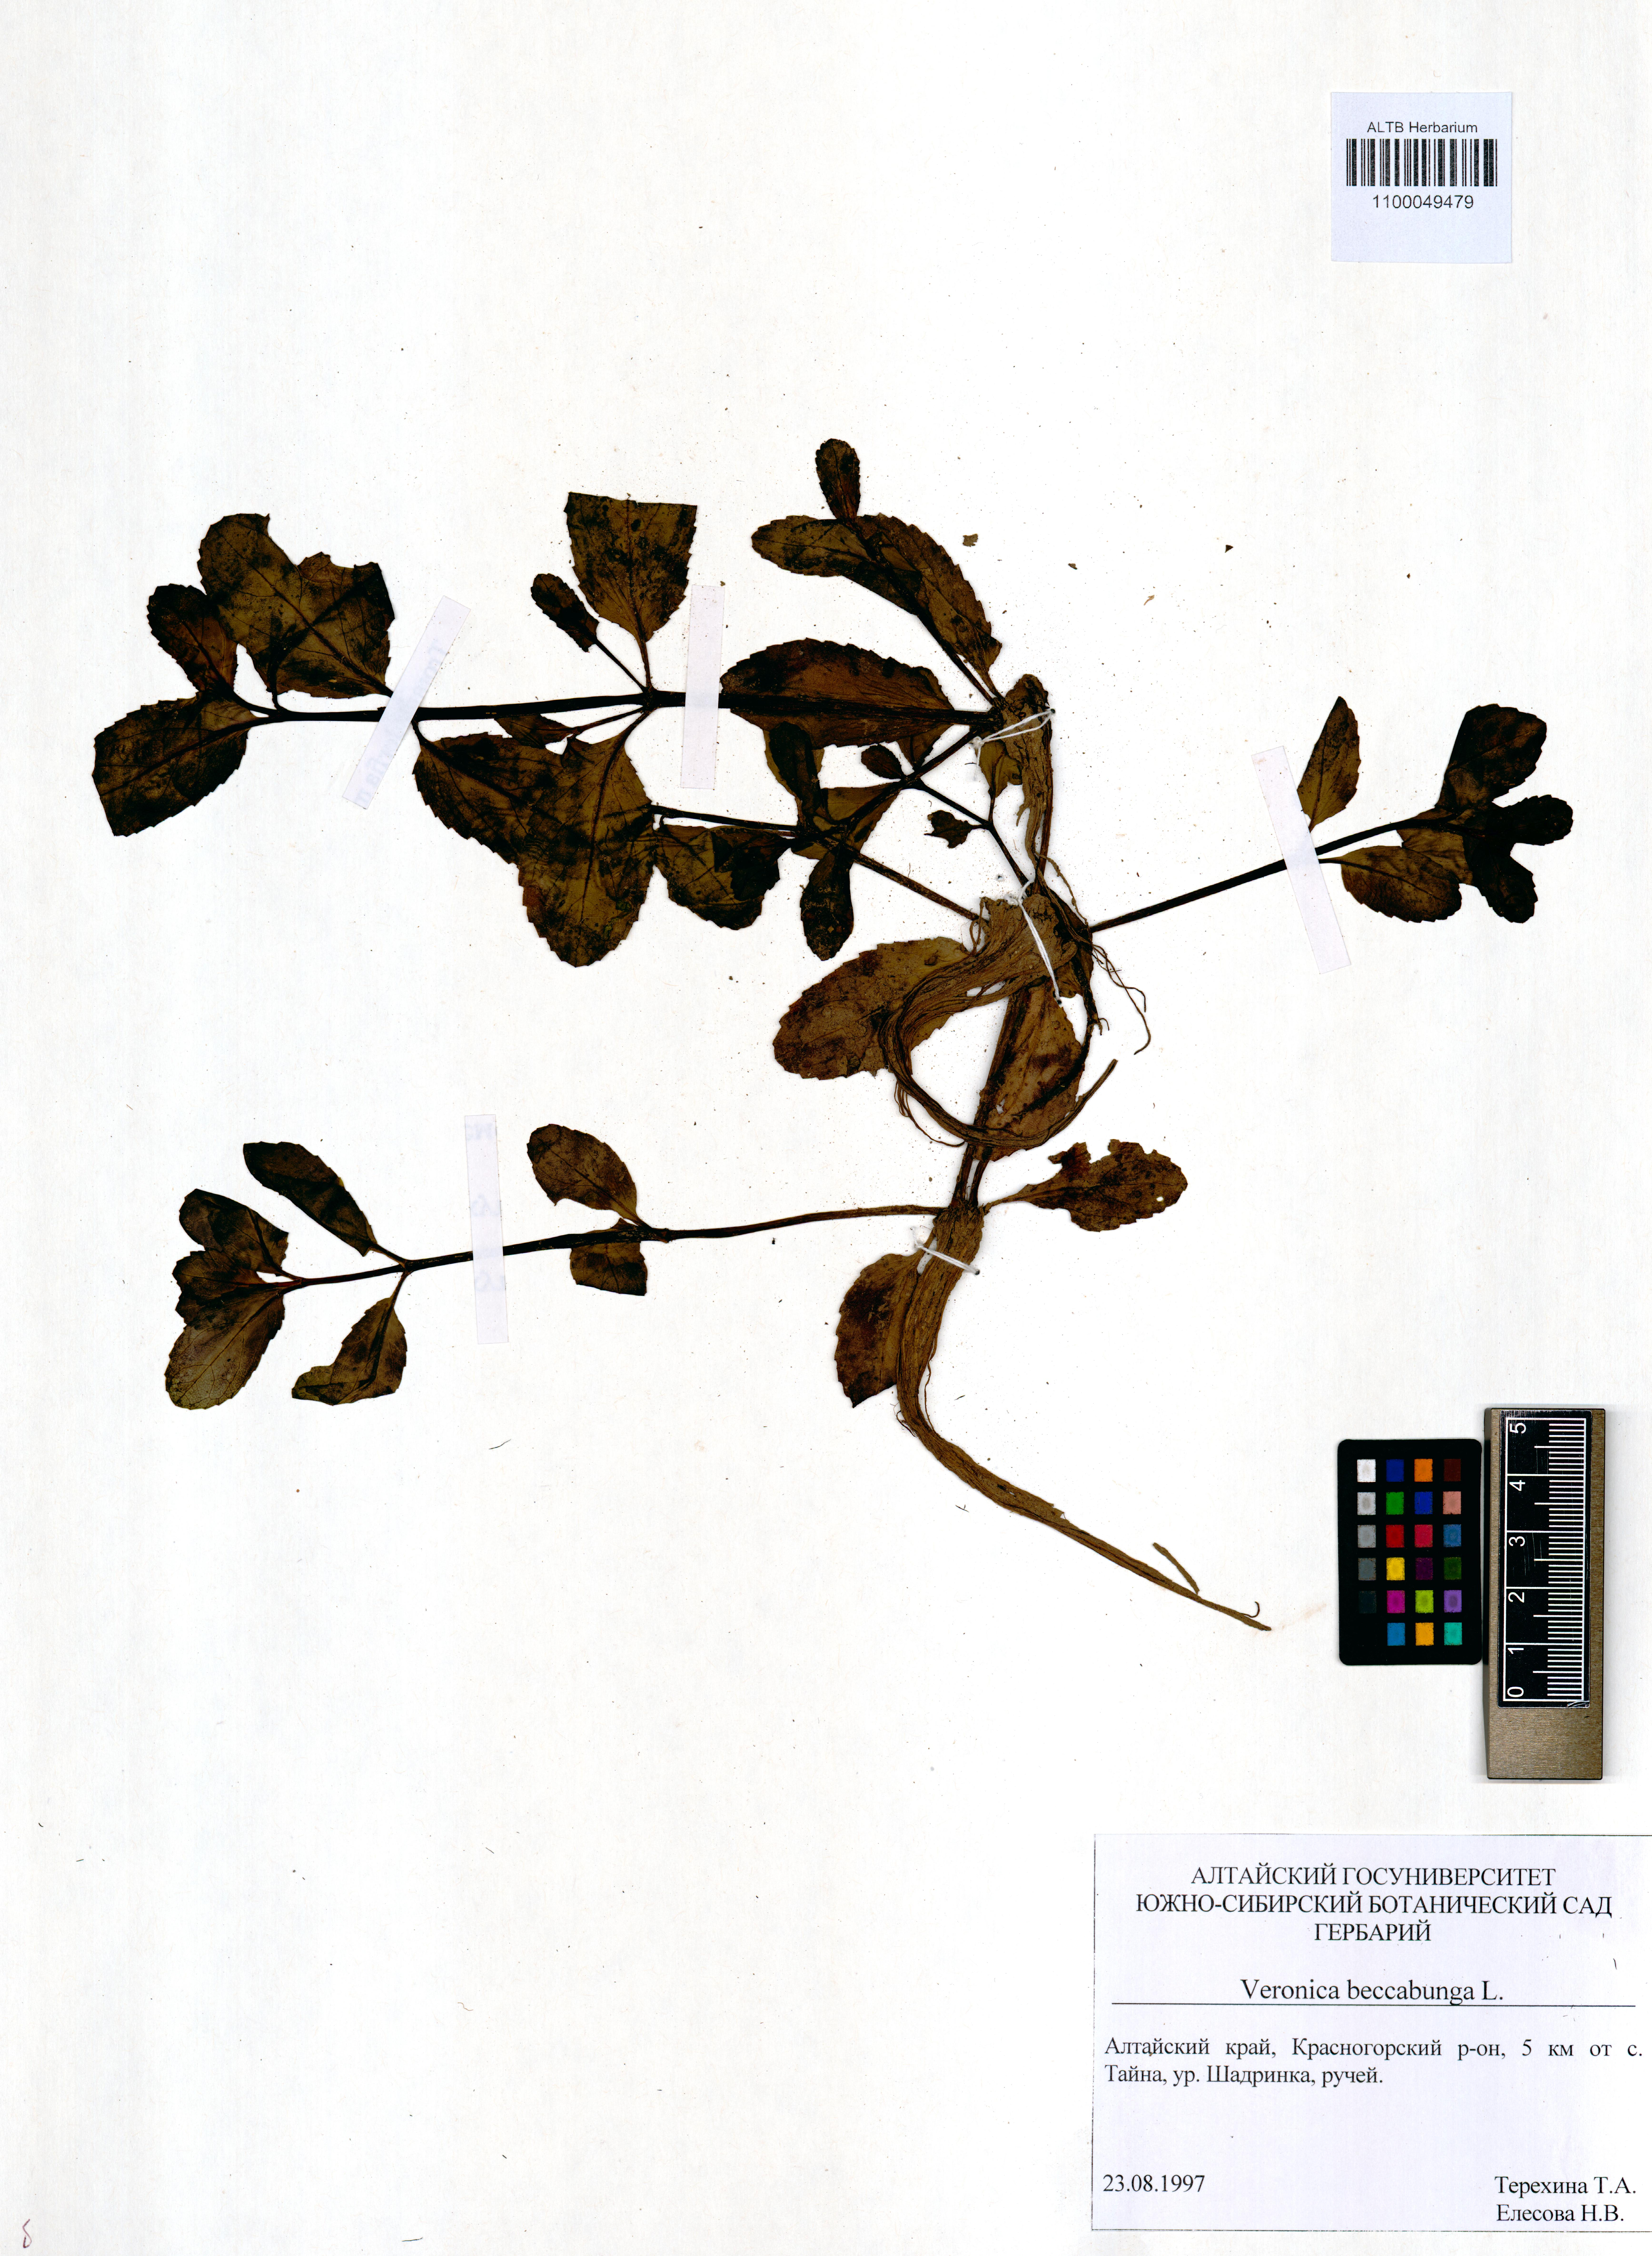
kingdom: Plantae
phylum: Tracheophyta
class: Magnoliopsida
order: Lamiales
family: Plantaginaceae
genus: Veronica
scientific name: Veronica beccabunga
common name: Brooklime
